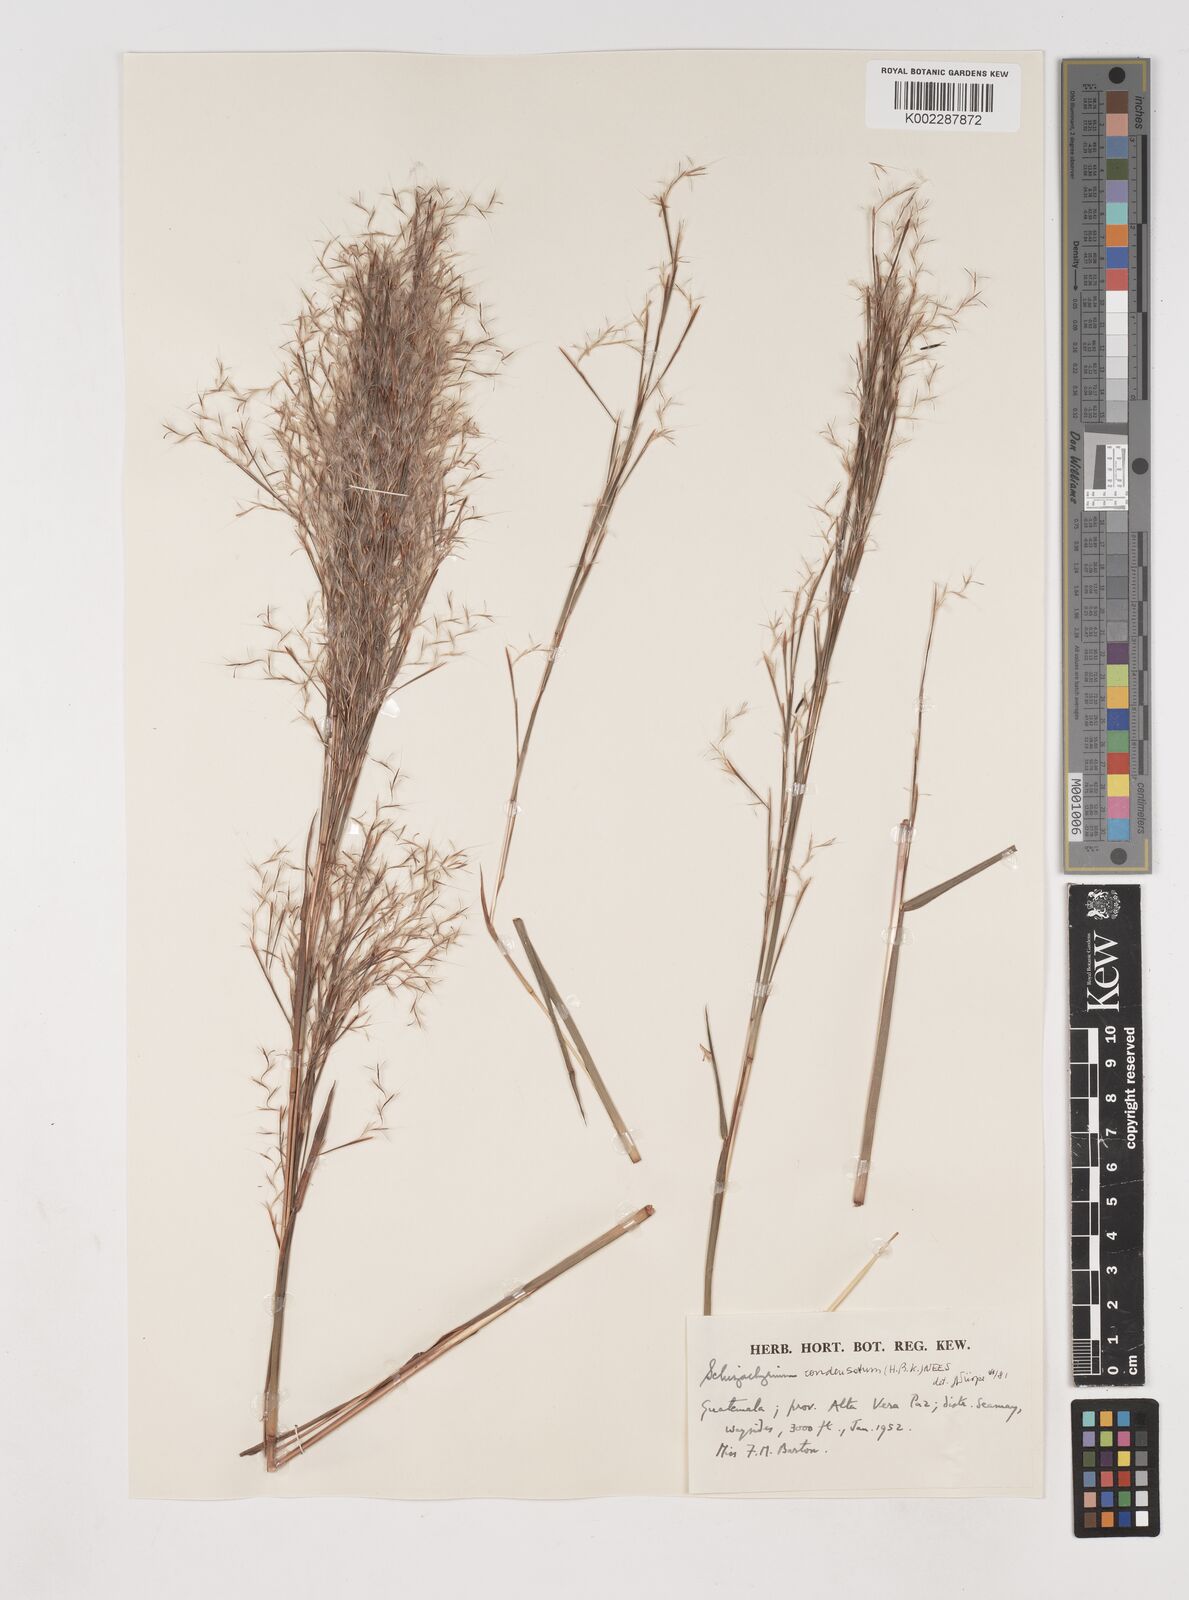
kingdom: Plantae
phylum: Tracheophyta
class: Liliopsida
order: Poales
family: Poaceae
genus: Schizachyrium
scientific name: Schizachyrium condensatum
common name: Bush beardgrass
